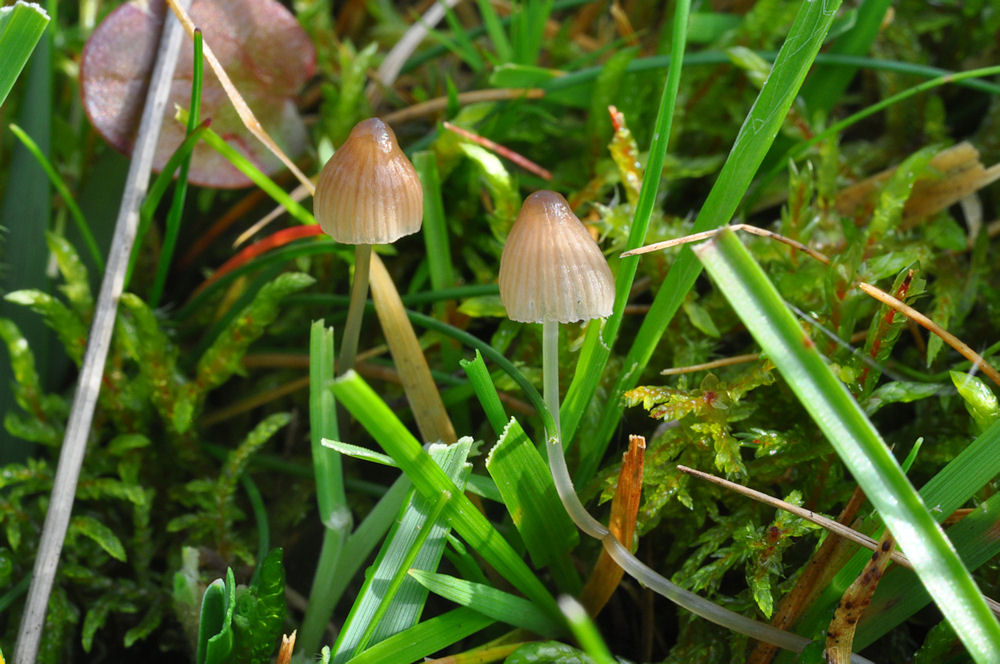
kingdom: Fungi
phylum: Basidiomycota
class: Agaricomycetes
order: Agaricales
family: Mycenaceae
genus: Mycena
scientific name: Mycena filopes
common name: jod-huesvamp
